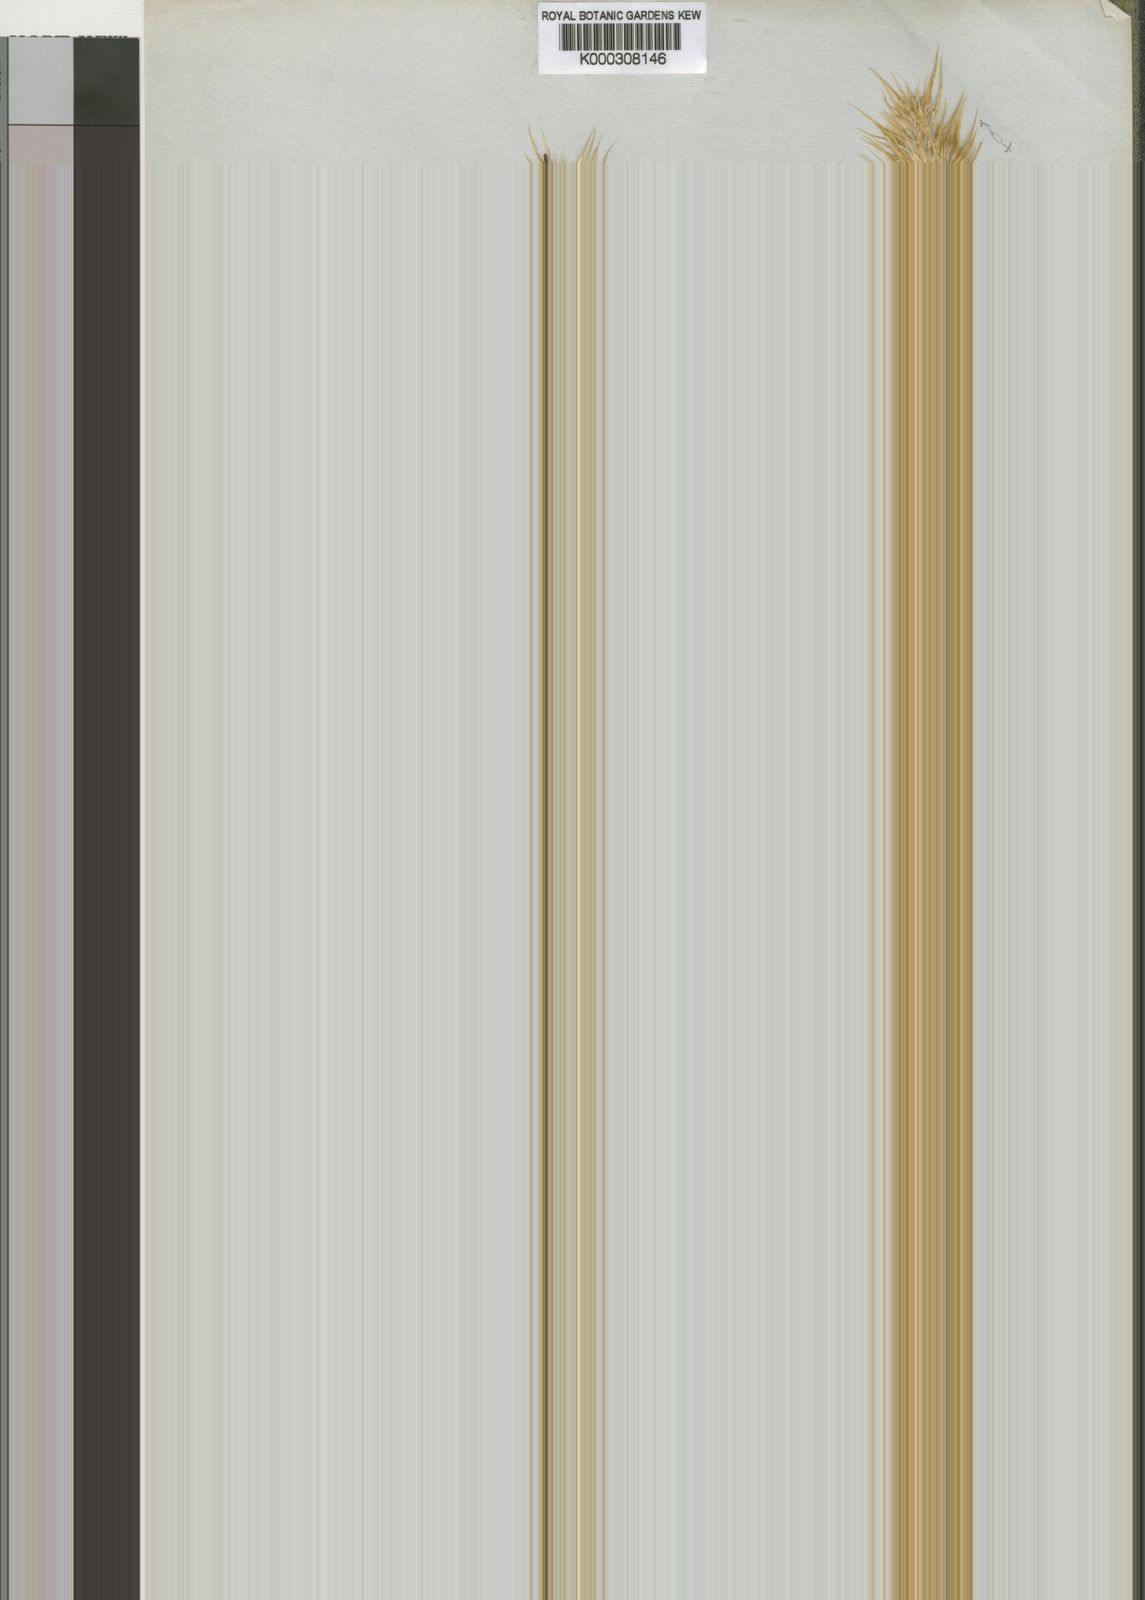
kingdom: Plantae
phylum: Tracheophyta
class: Liliopsida
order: Poales
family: Poaceae
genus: Cortaderia
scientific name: Cortaderia sericantha
